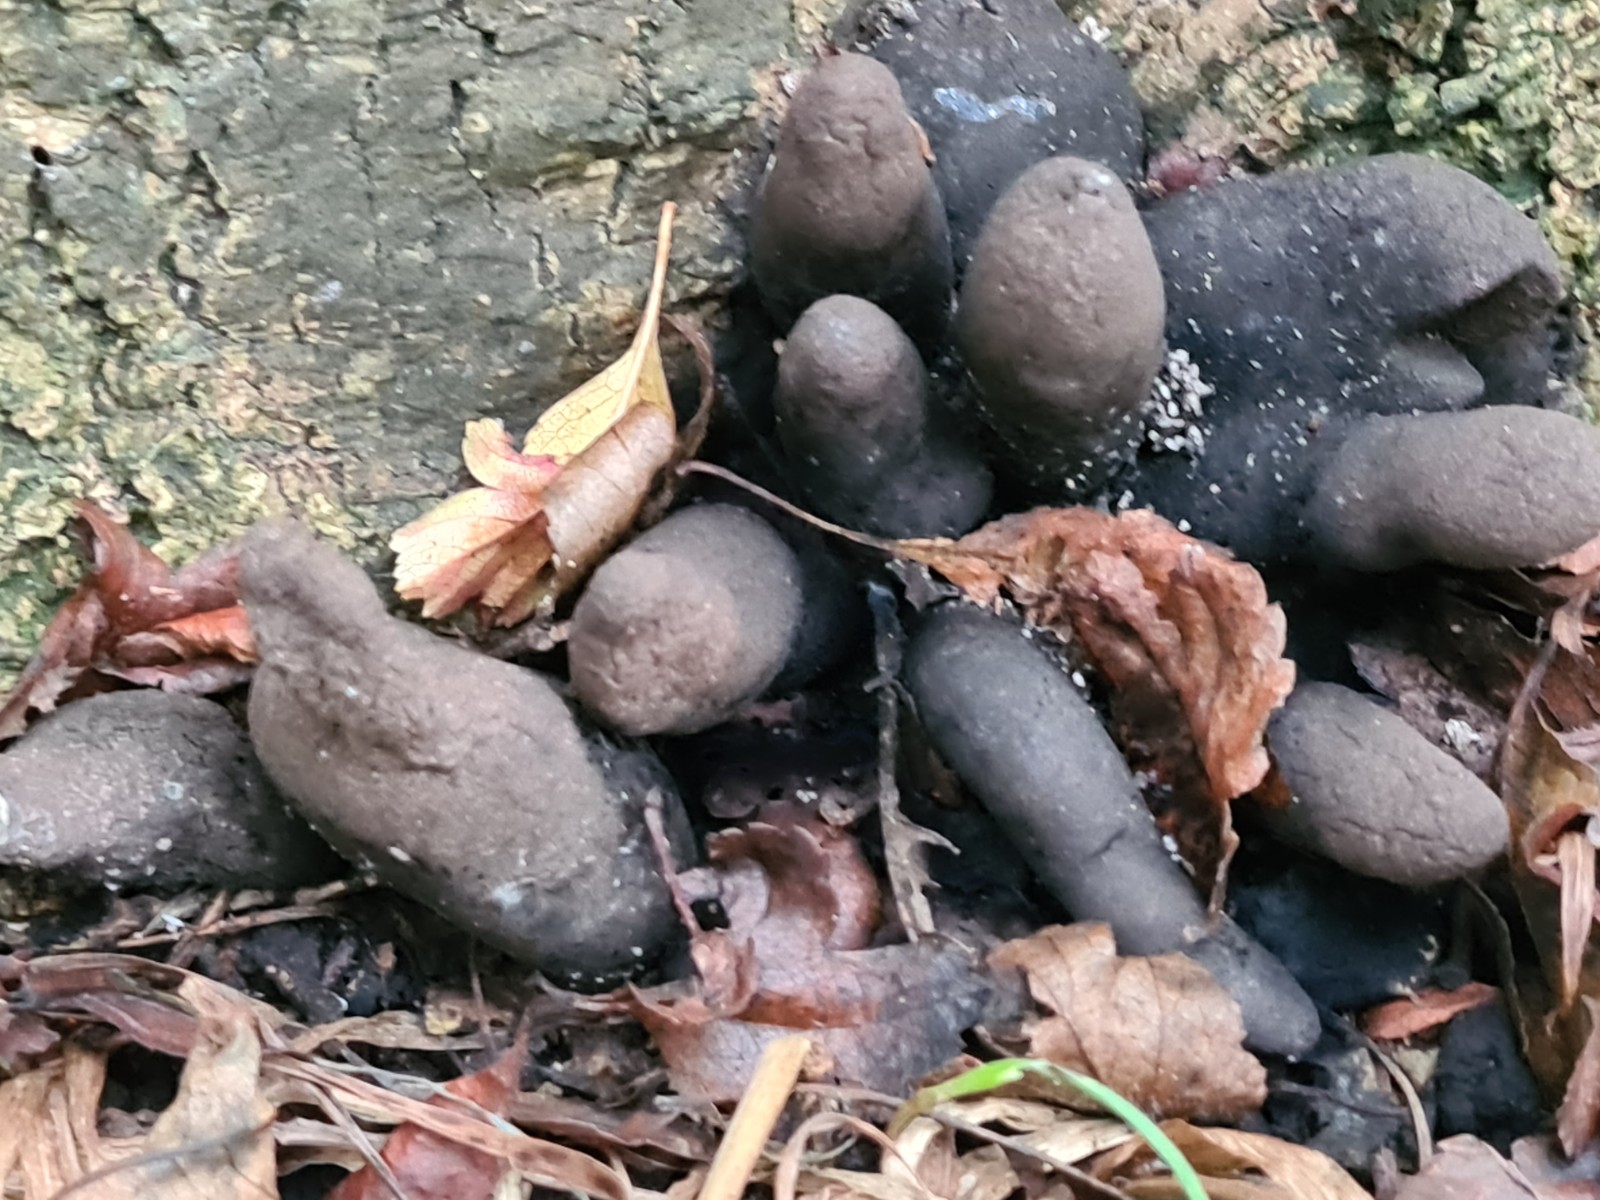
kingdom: Fungi
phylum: Ascomycota
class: Sordariomycetes
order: Xylariales
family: Xylariaceae
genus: Xylaria
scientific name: Xylaria polymorpha
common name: kølle-stødsvamp
